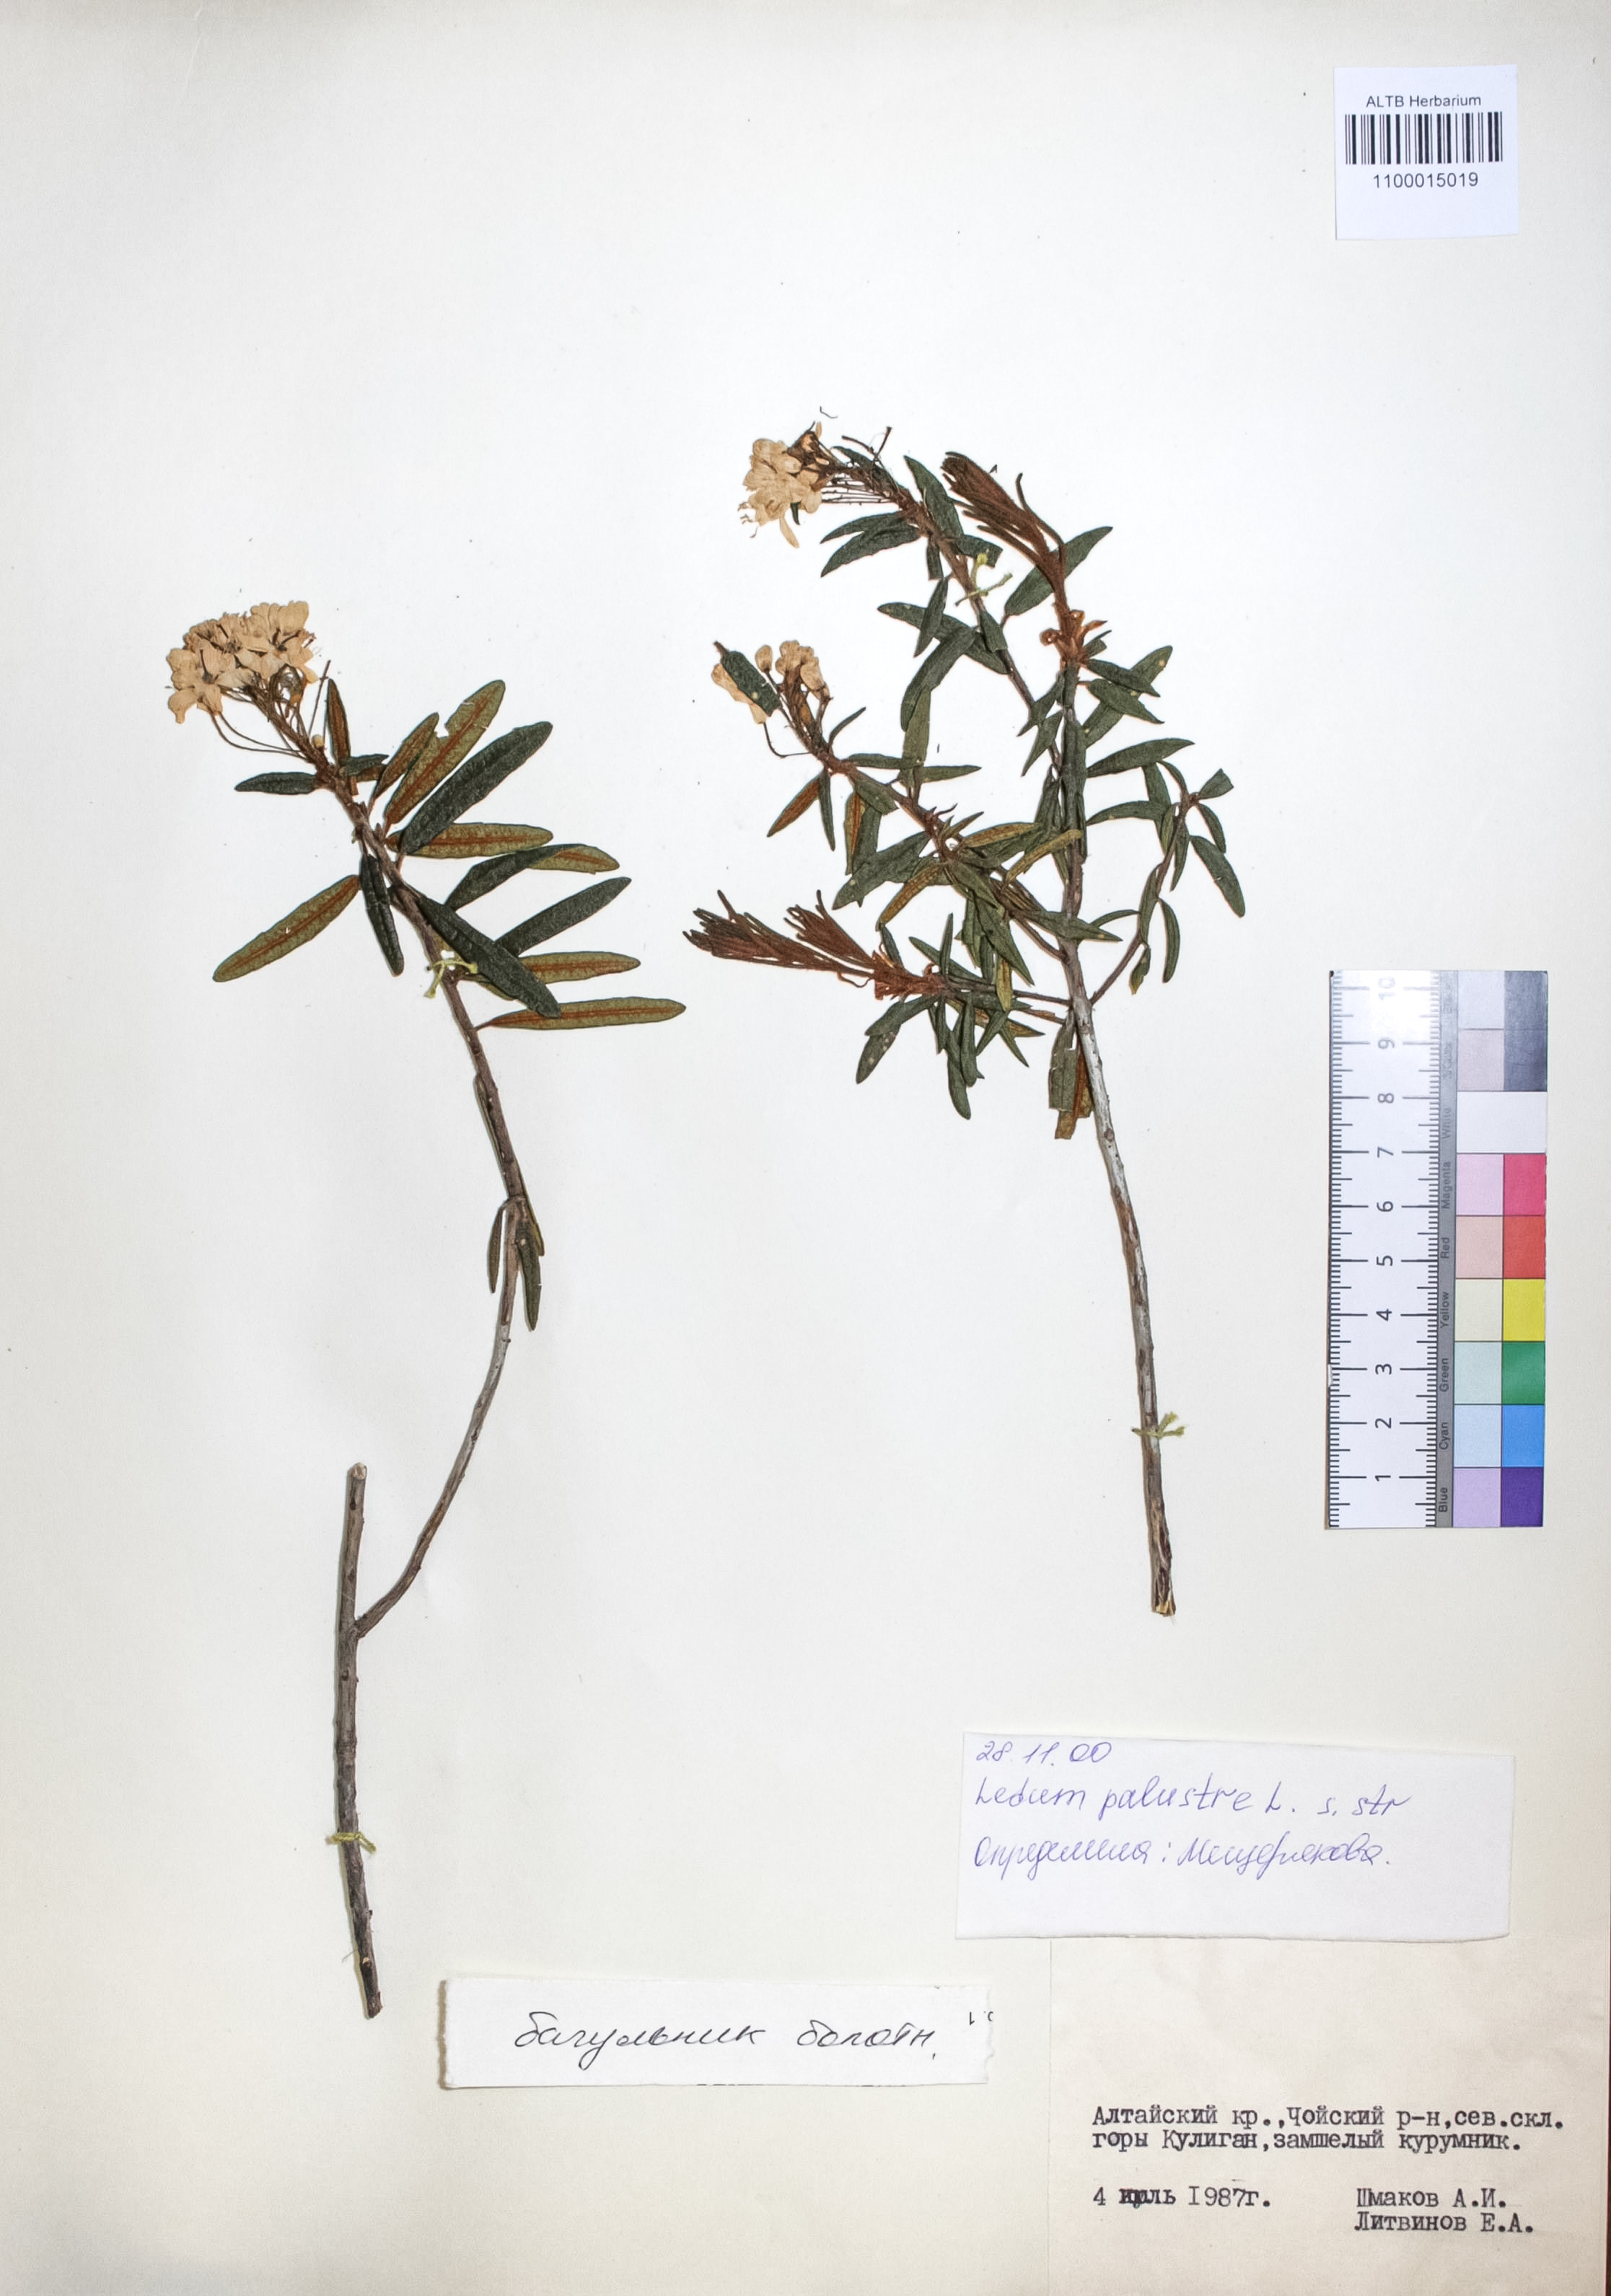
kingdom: Plantae
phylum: Tracheophyta
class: Magnoliopsida
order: Ericales
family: Ericaceae
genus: Rhododendron
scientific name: Rhododendron tomentosum
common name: Marsh labrador tea
